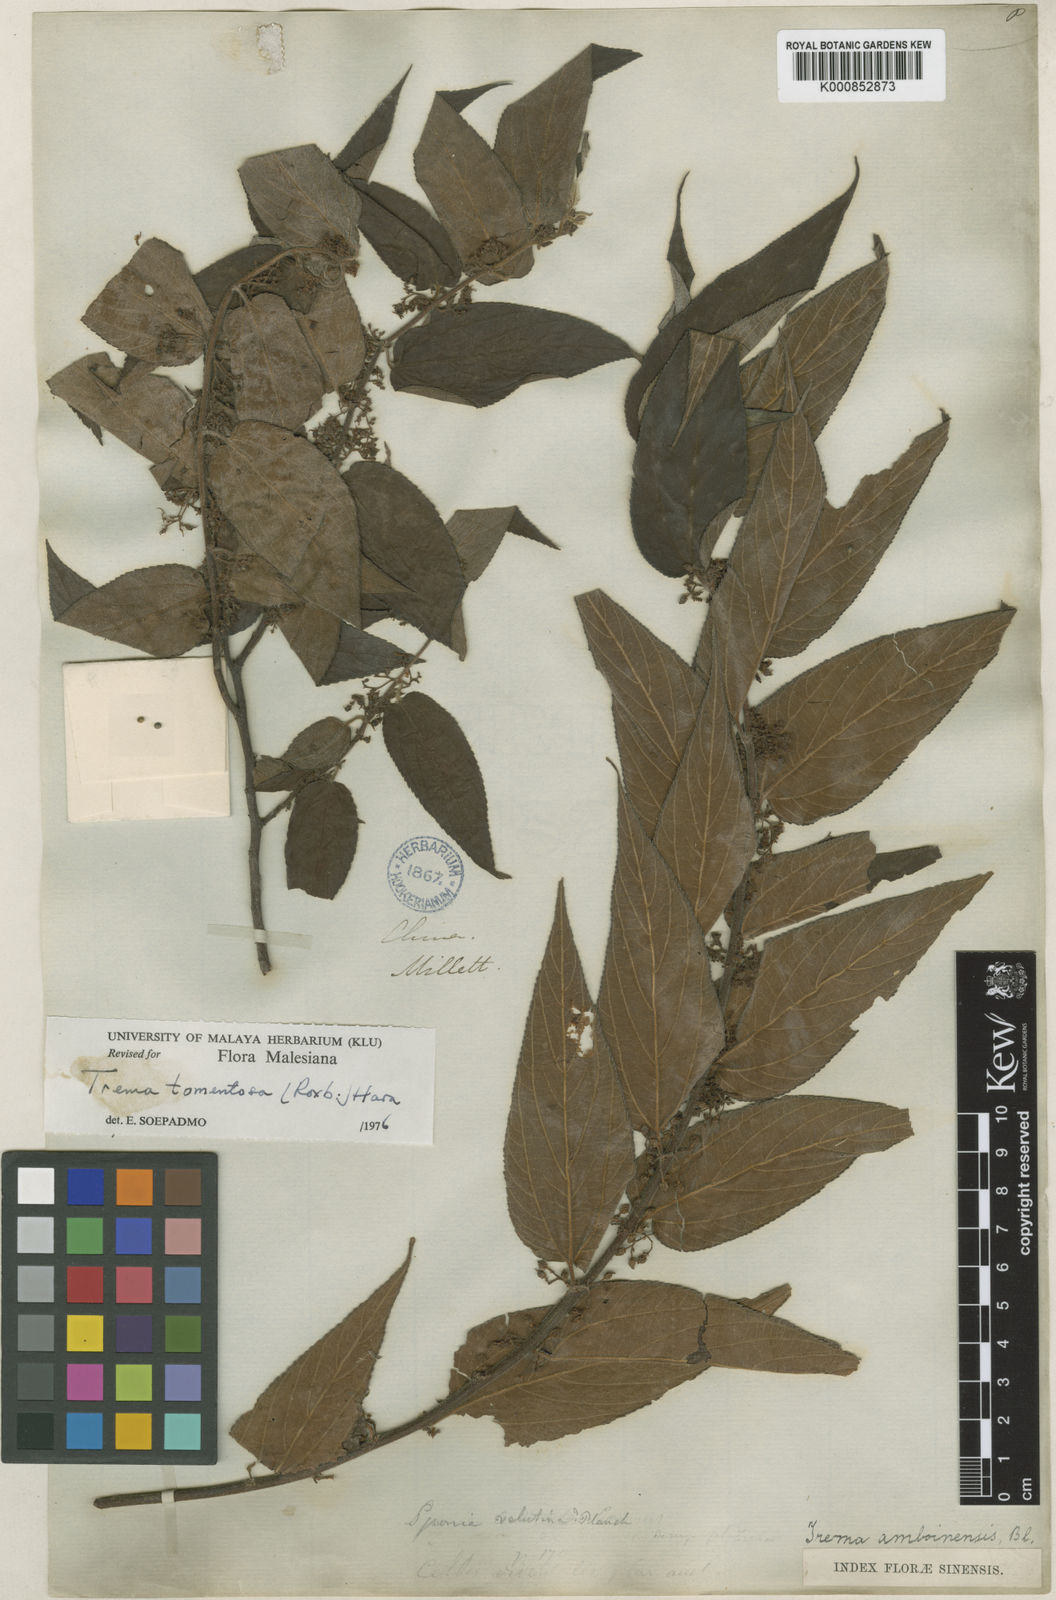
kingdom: Plantae
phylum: Tracheophyta
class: Magnoliopsida
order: Rosales
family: Cannabaceae
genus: Trema
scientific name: Trema tomentosum
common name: Peach-leaf-poisonbush
